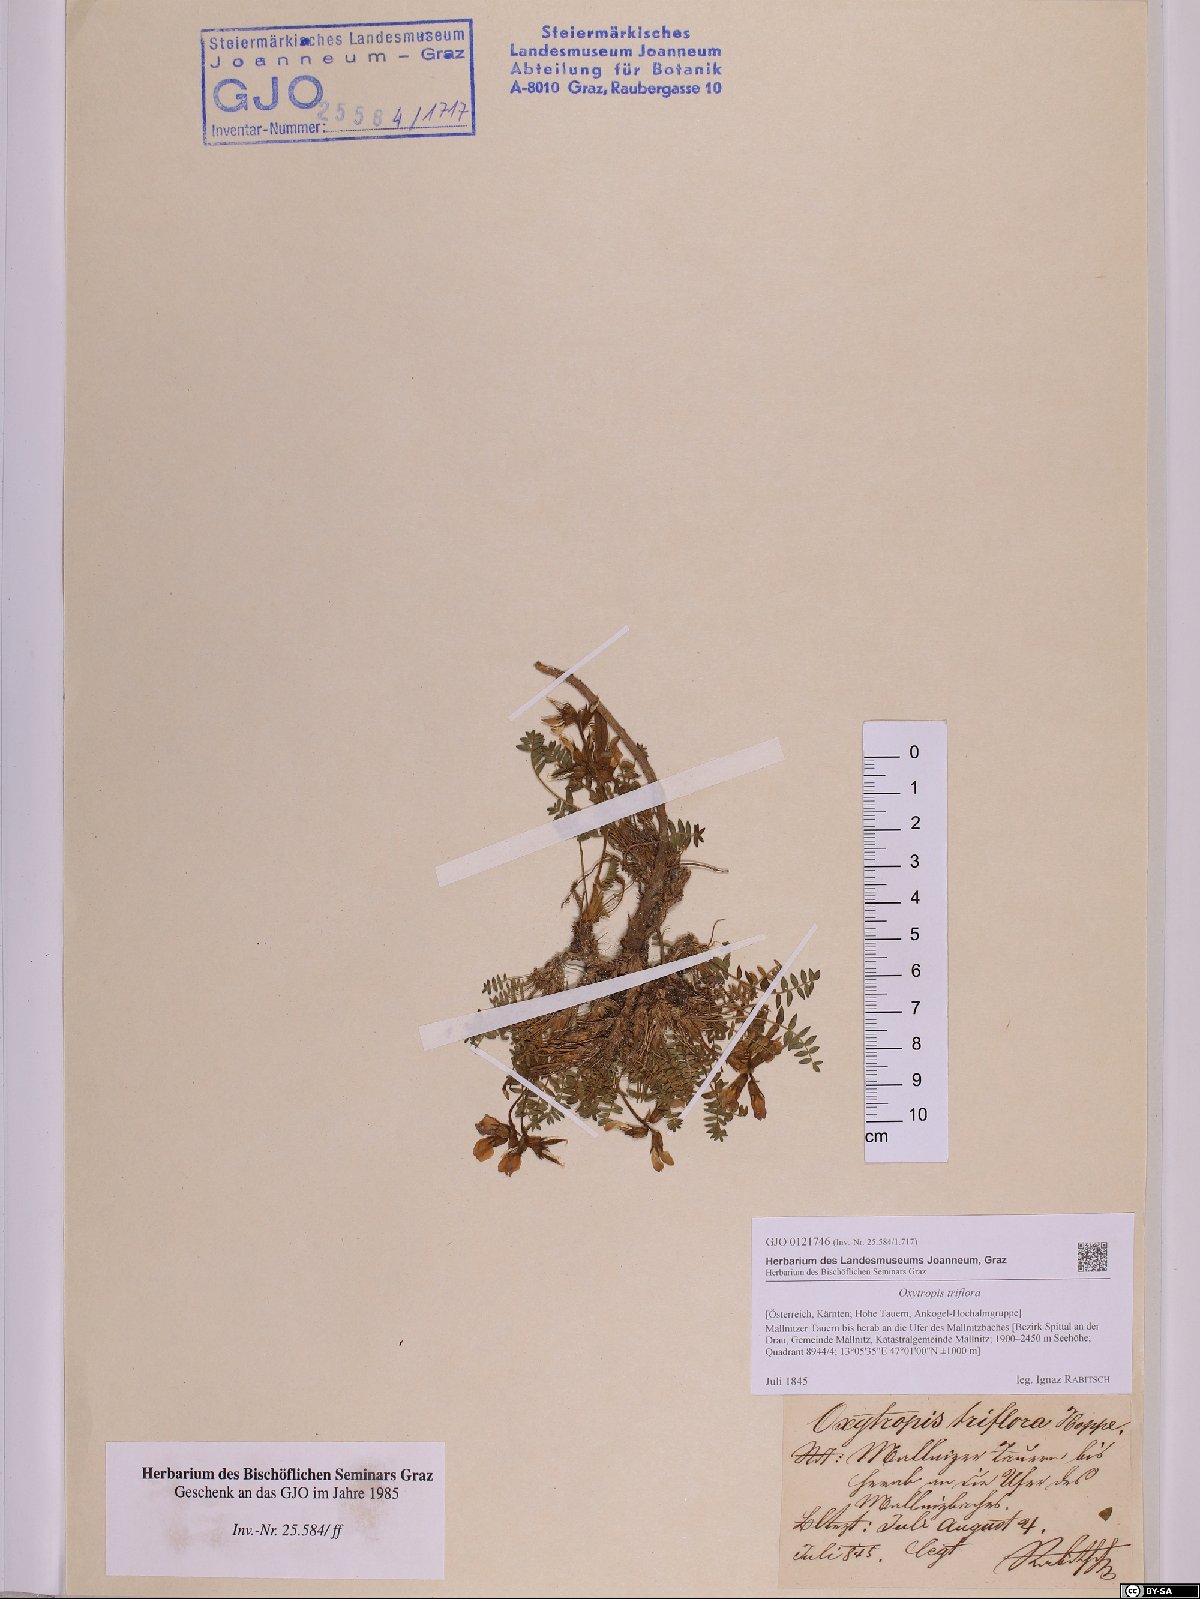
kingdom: Plantae
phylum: Tracheophyta
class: Magnoliopsida
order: Fabales
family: Fabaceae
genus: Oxytropis
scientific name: Oxytropis triflora
